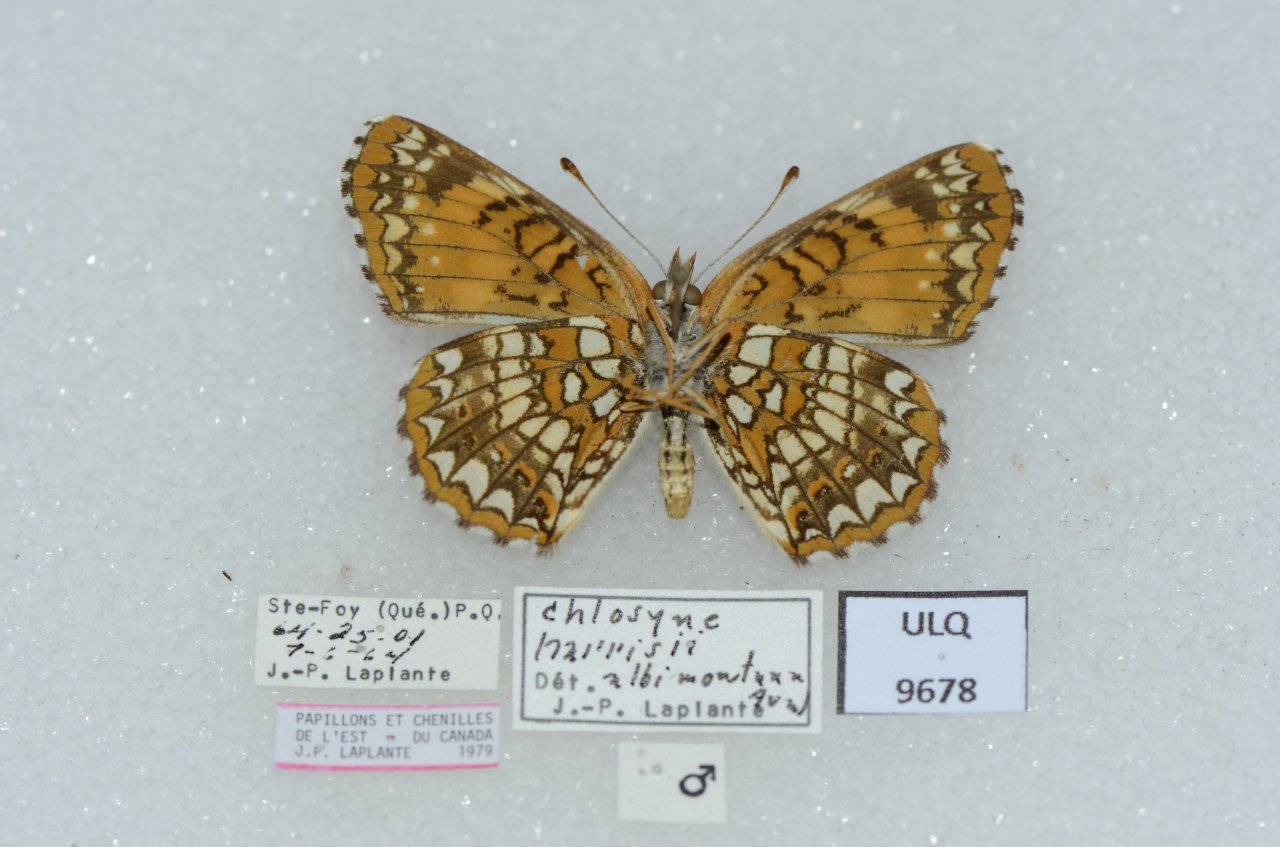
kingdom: Animalia
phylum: Arthropoda
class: Insecta
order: Lepidoptera
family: Nymphalidae
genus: Chlosyne
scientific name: Chlosyne harrisii
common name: Harris's Checkerspot
